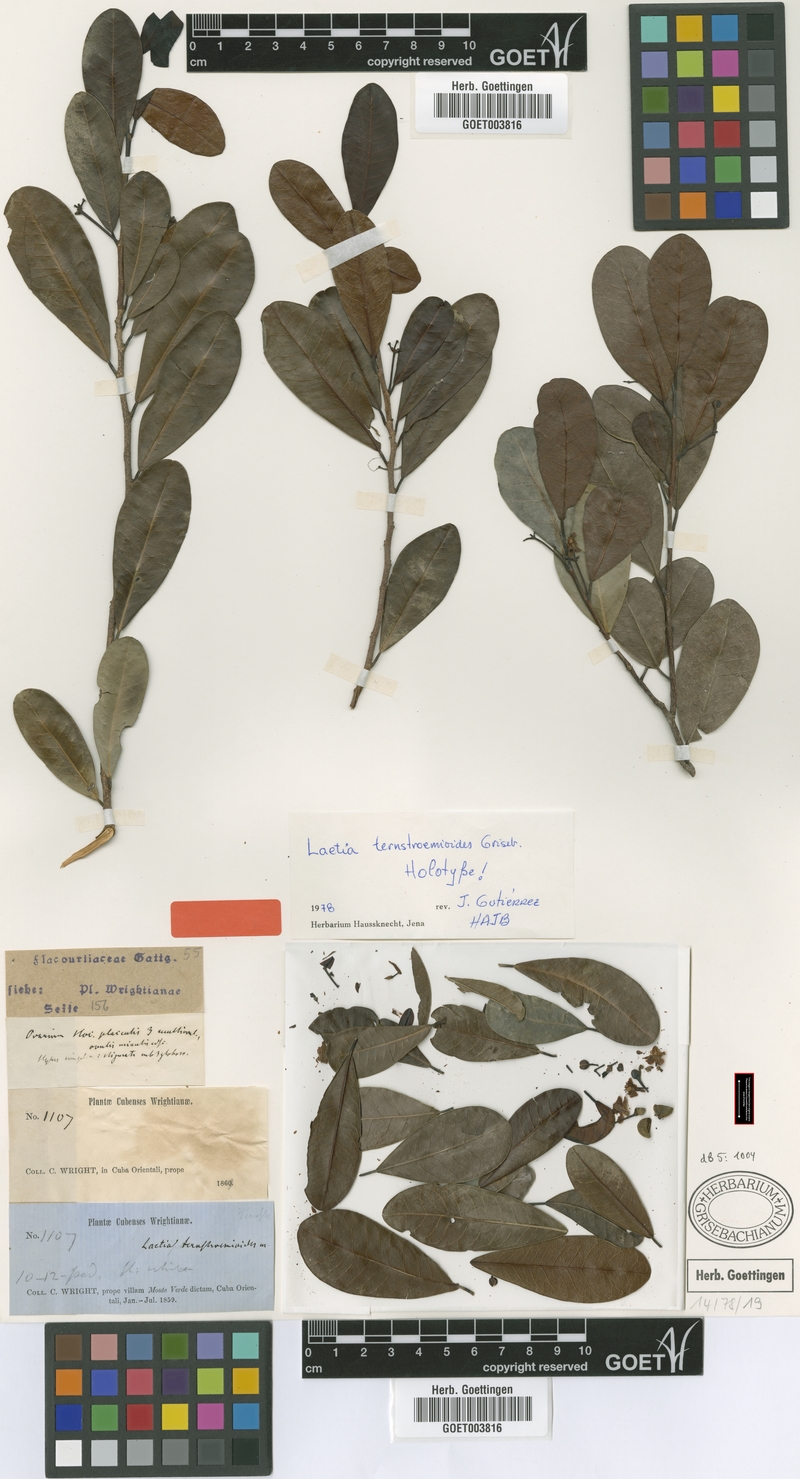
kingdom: Plantae
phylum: Tracheophyta
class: Magnoliopsida
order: Malpighiales
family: Salicaceae
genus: Casearia
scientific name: Casearia ternstroemioides
